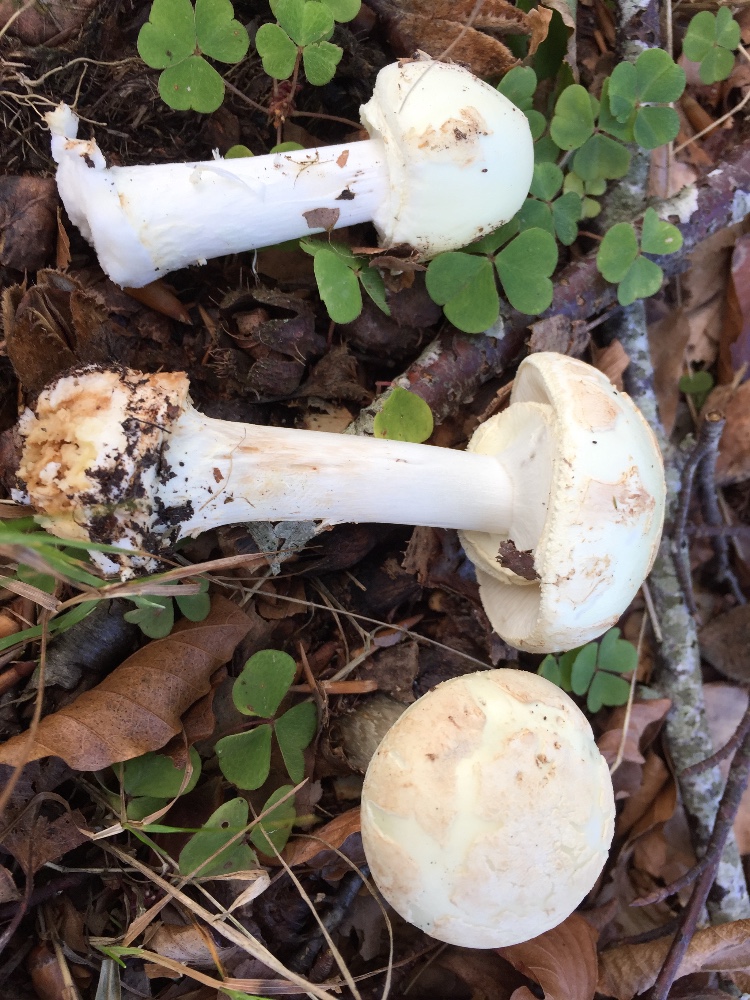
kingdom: Fungi
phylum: Basidiomycota
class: Agaricomycetes
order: Agaricales
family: Amanitaceae
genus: Amanita
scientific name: Amanita citrina
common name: kugleknoldet fluesvamp
